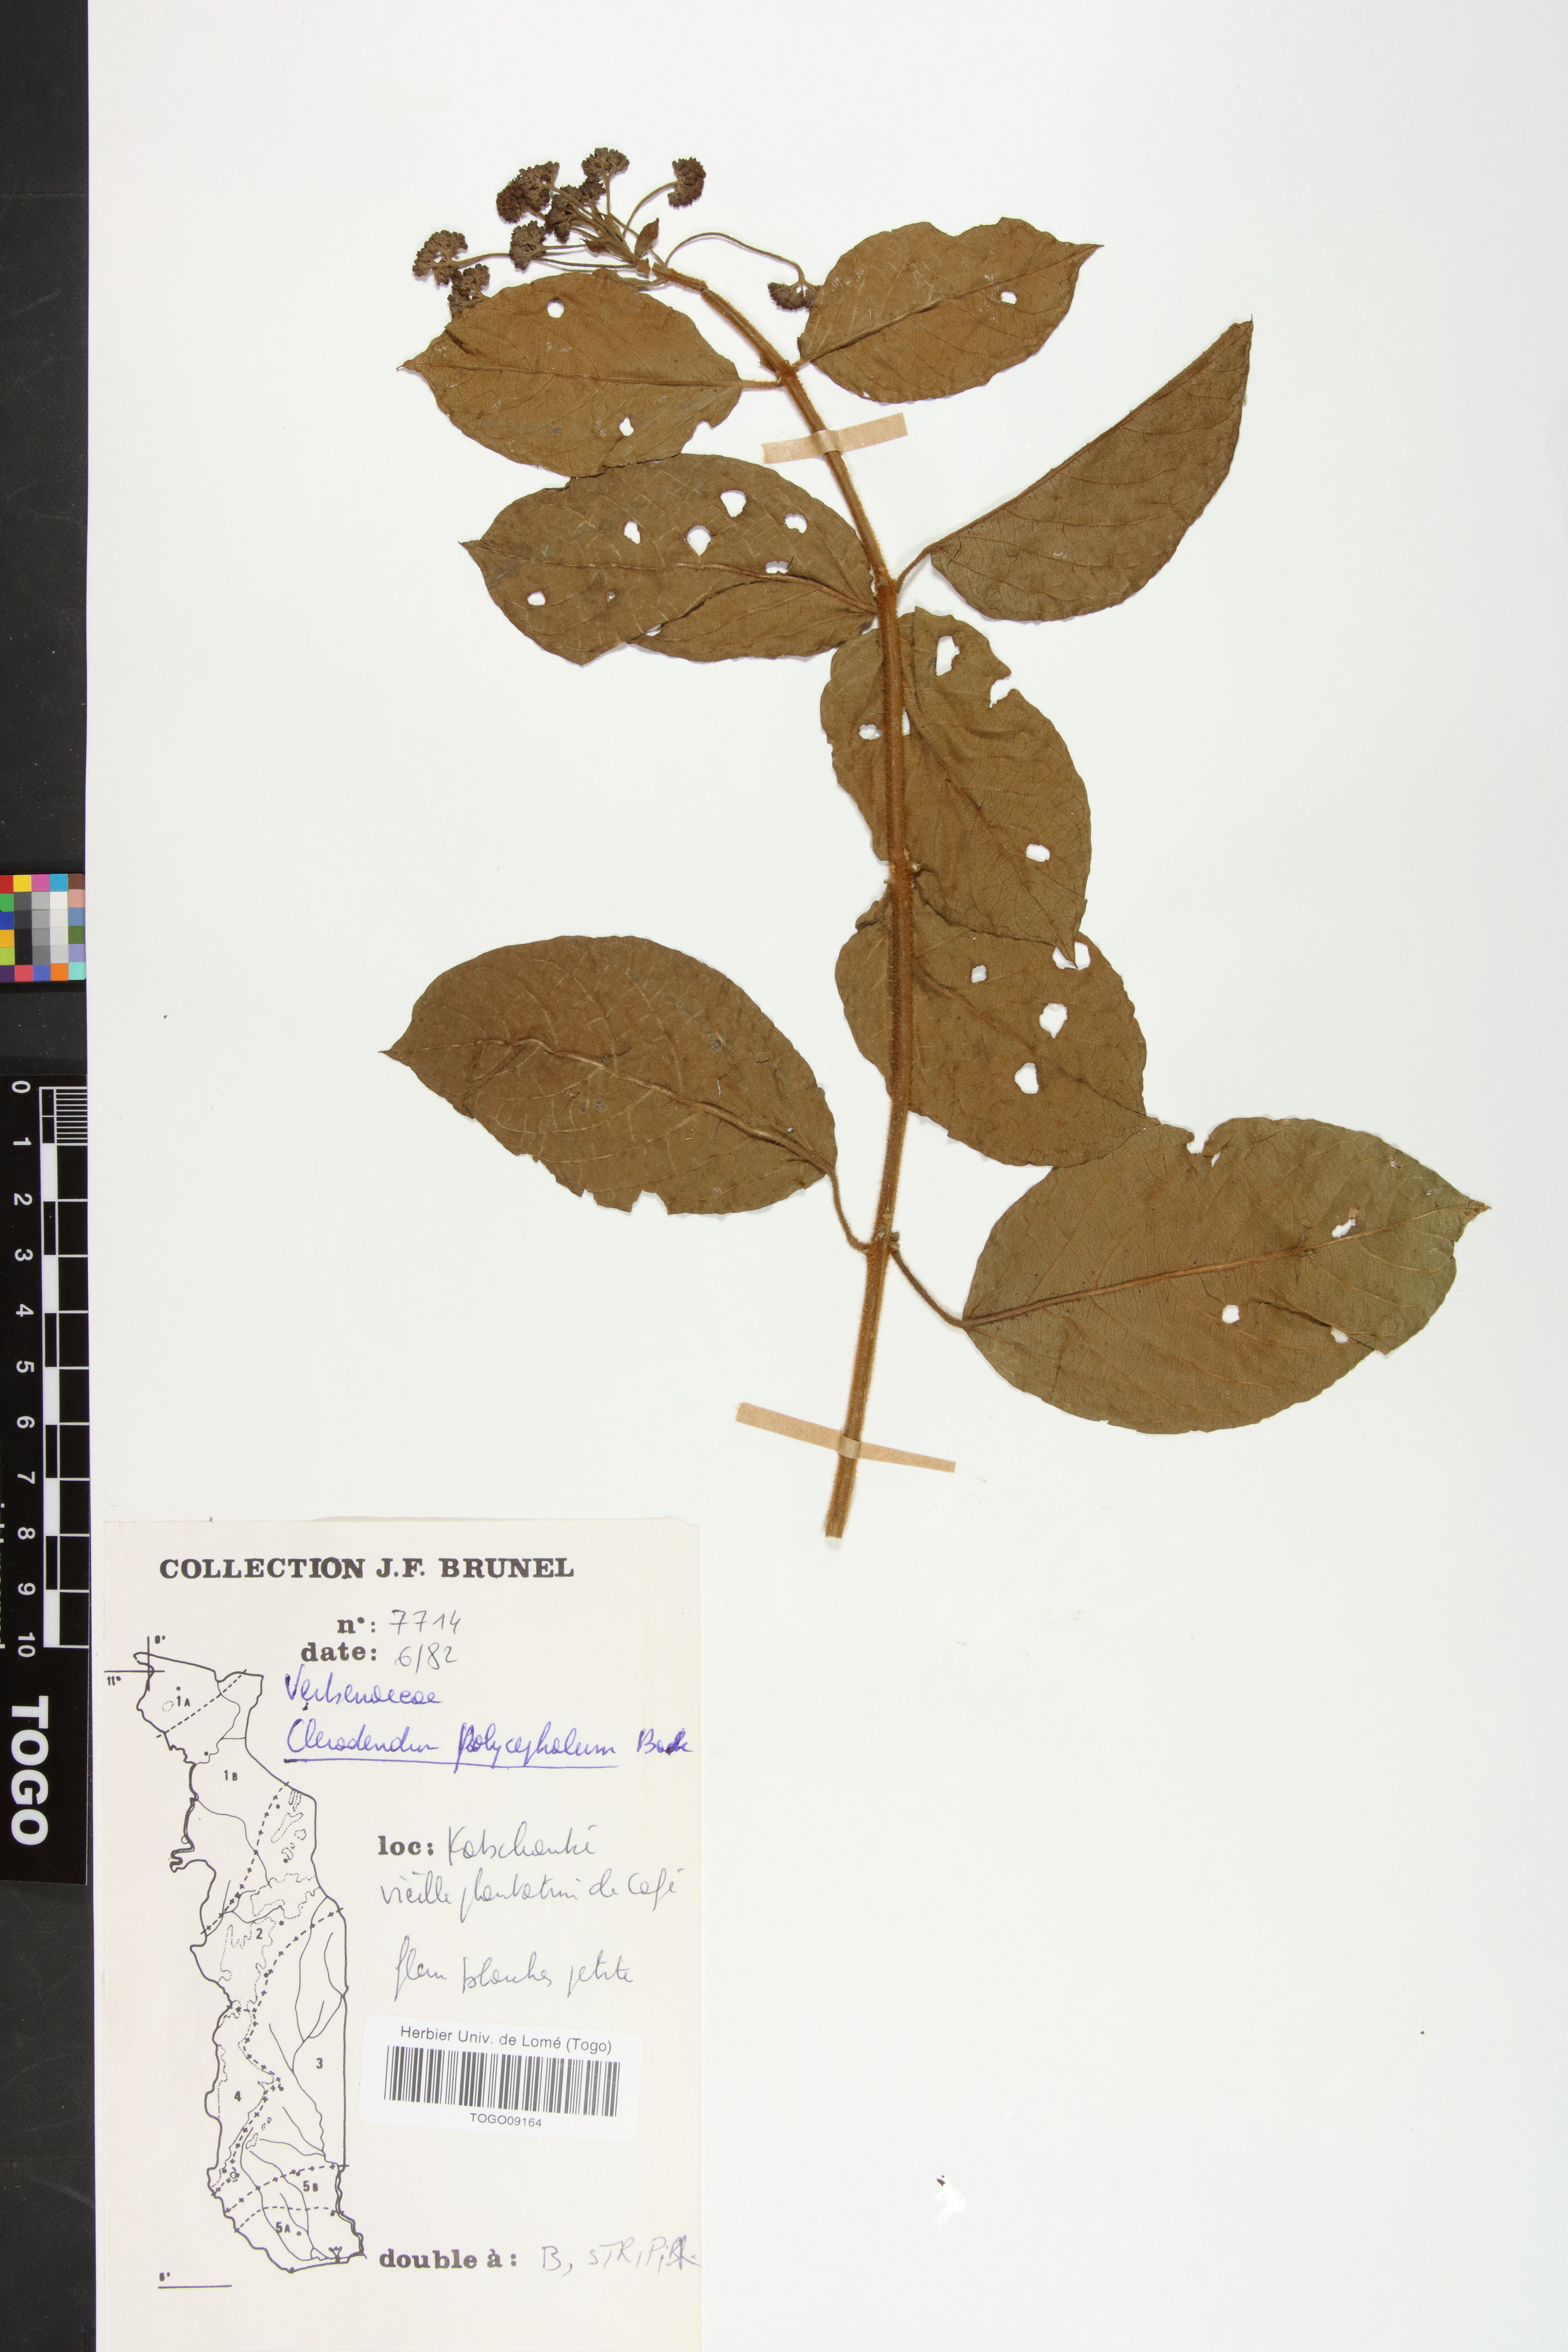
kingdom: Plantae
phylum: Tracheophyta
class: Magnoliopsida
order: Lamiales
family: Lamiaceae
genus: Clerodendrum
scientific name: Clerodendrum polycephalum
